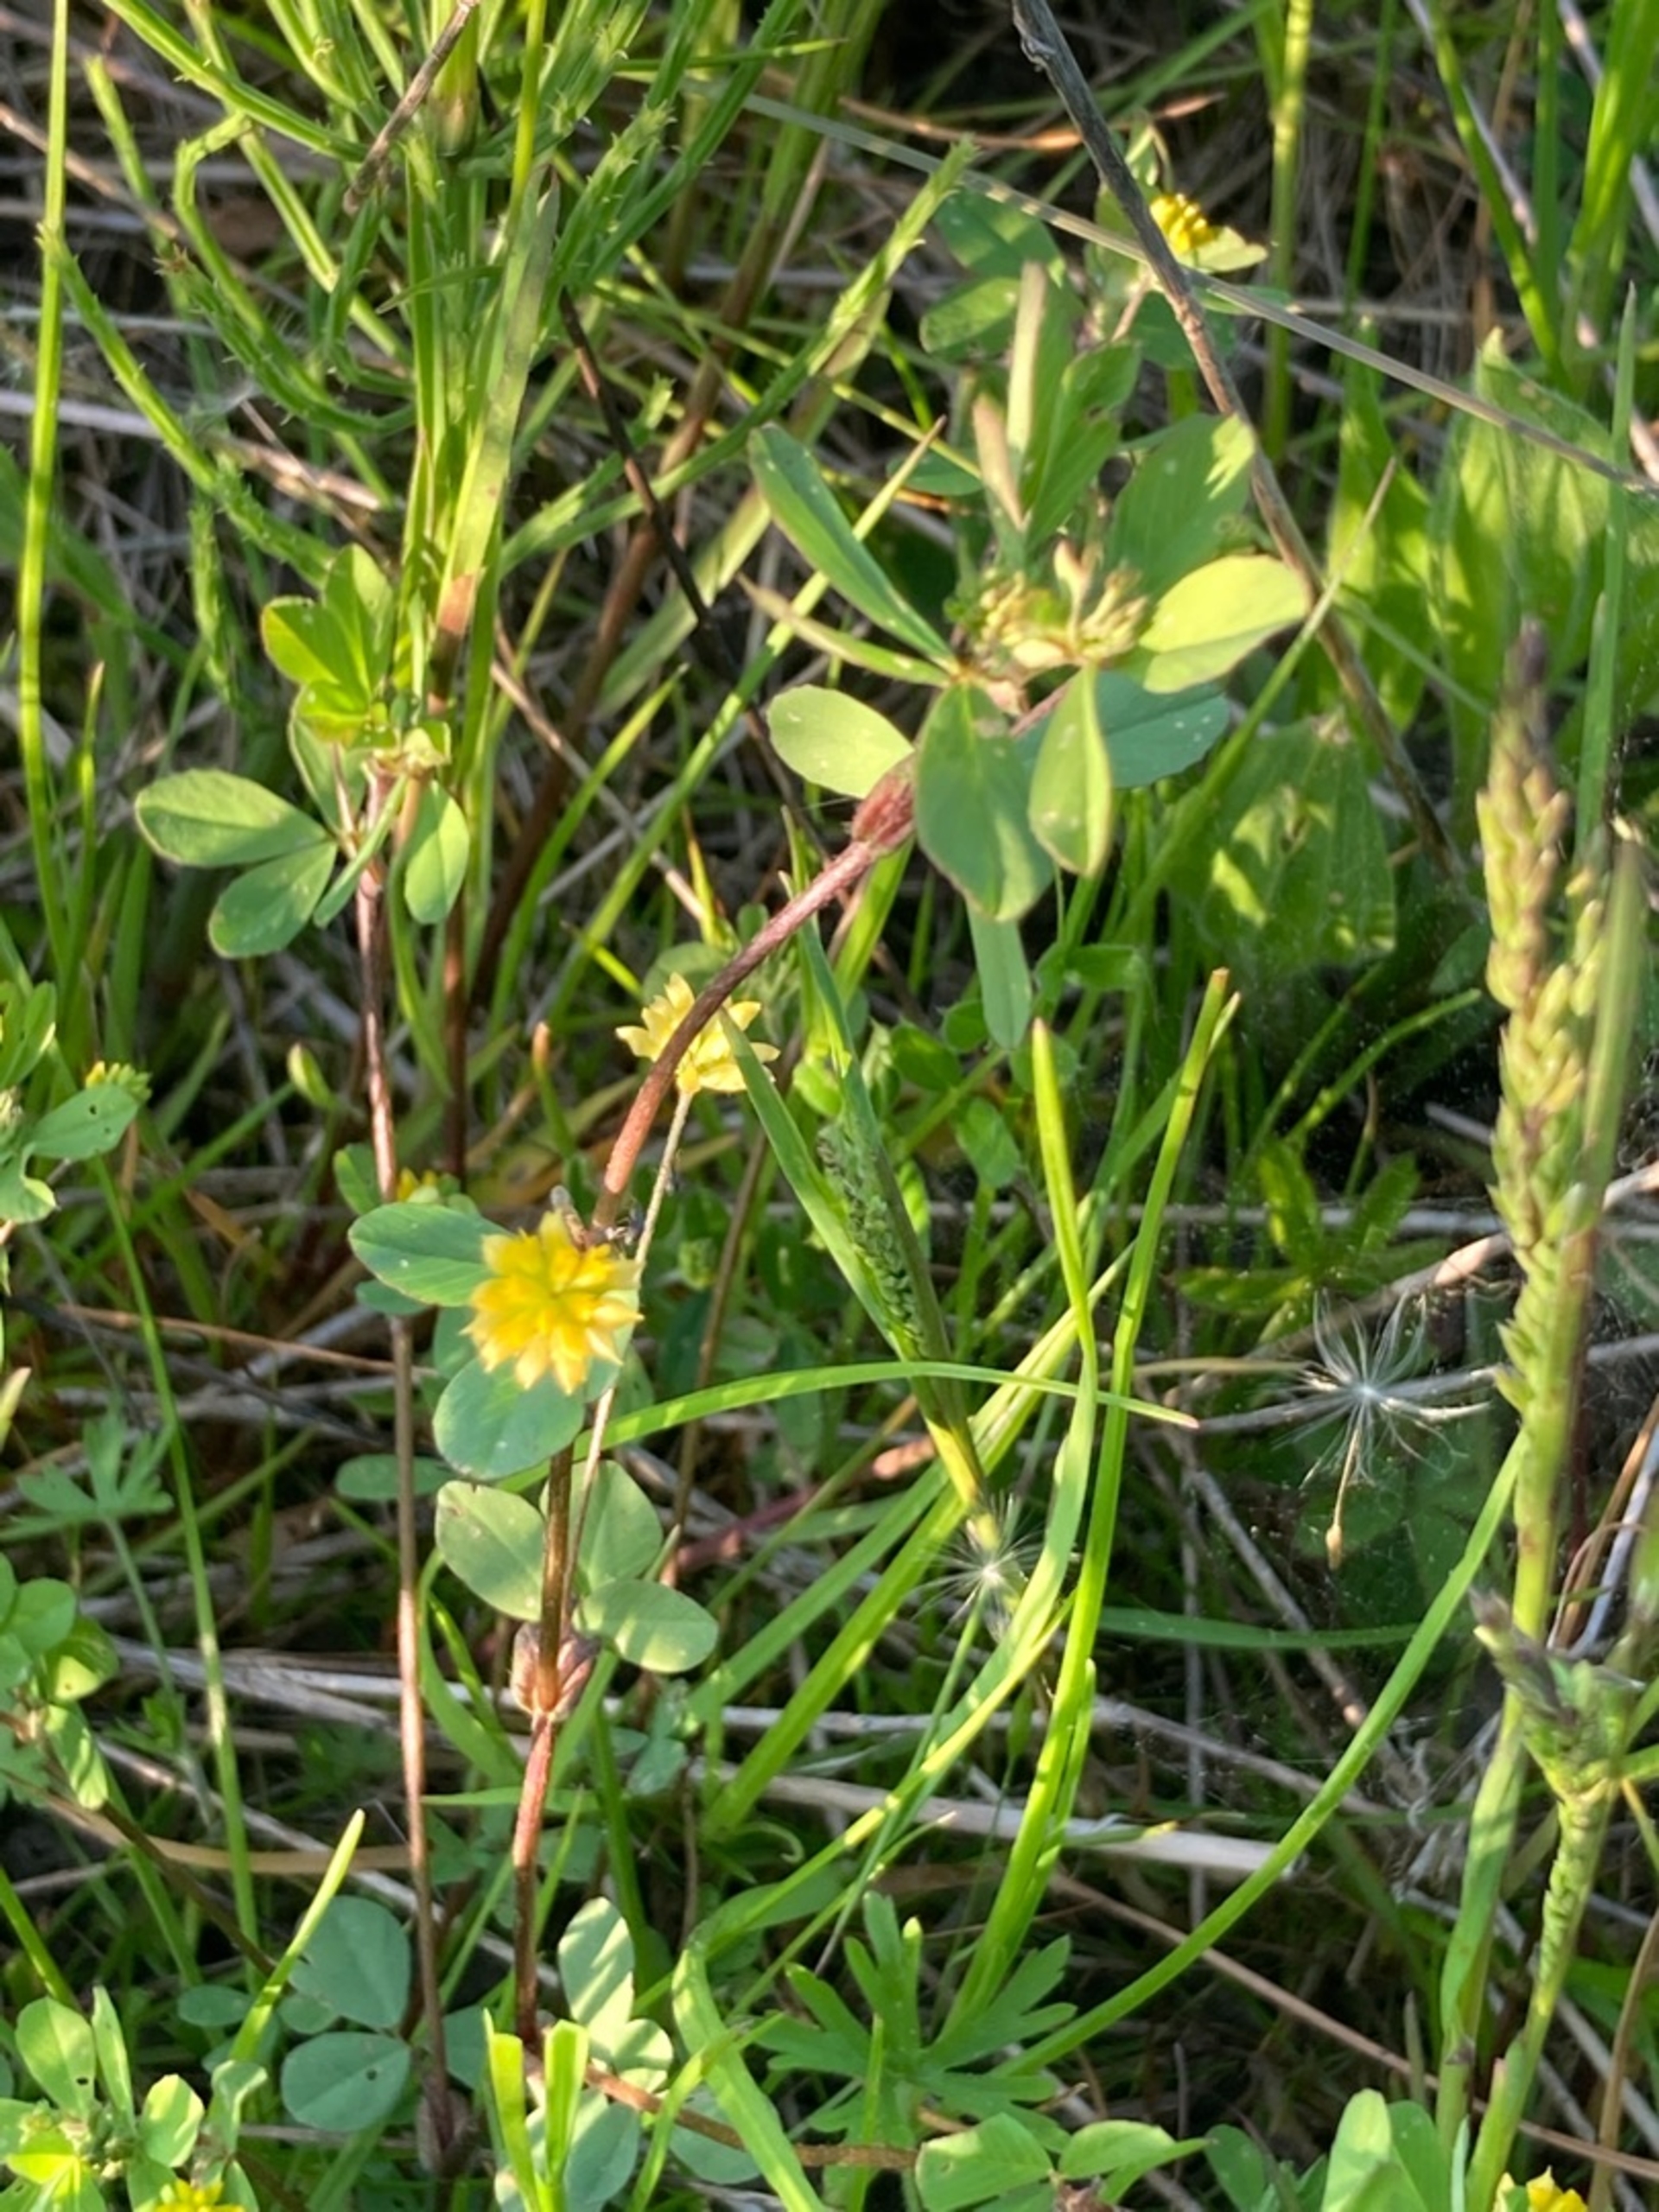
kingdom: Plantae
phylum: Tracheophyta
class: Magnoliopsida
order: Fabales
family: Fabaceae
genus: Trifolium
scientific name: Trifolium dubium
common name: Fin kløver
